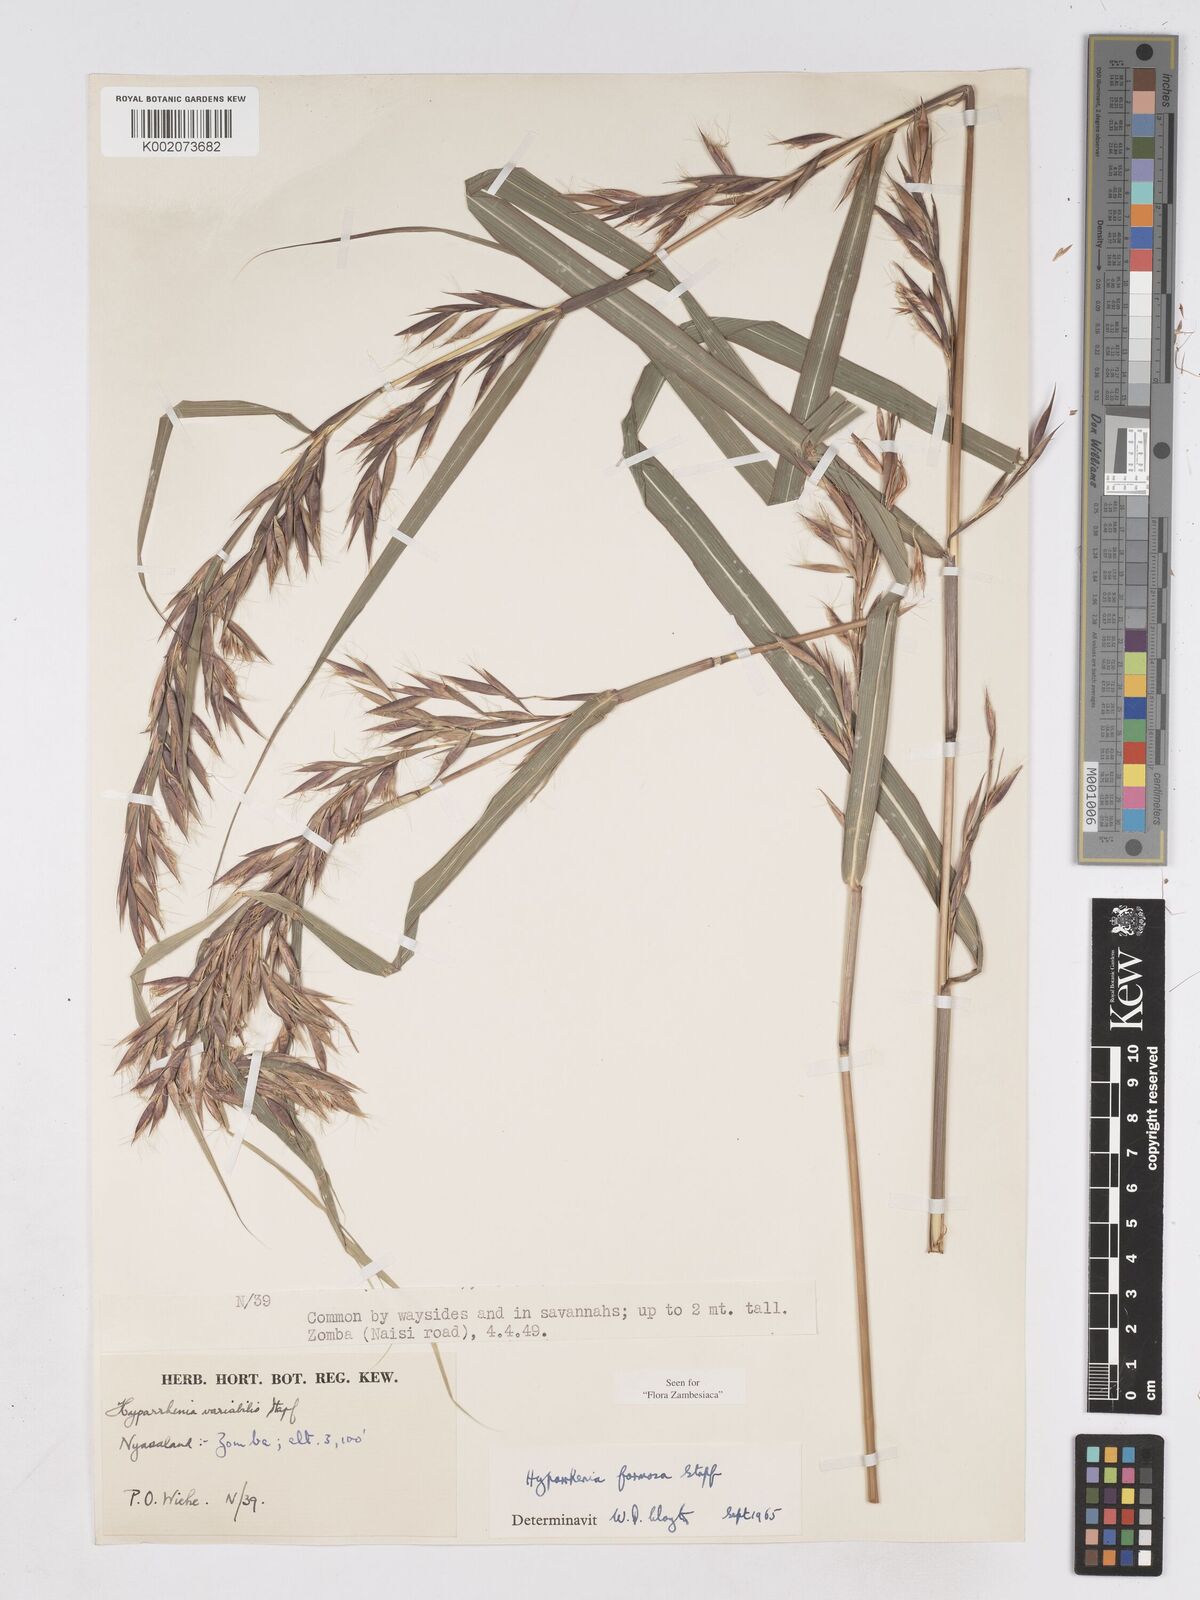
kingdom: Plantae
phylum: Tracheophyta
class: Liliopsida
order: Poales
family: Poaceae
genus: Hyparrhenia
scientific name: Hyparrhenia formosa
